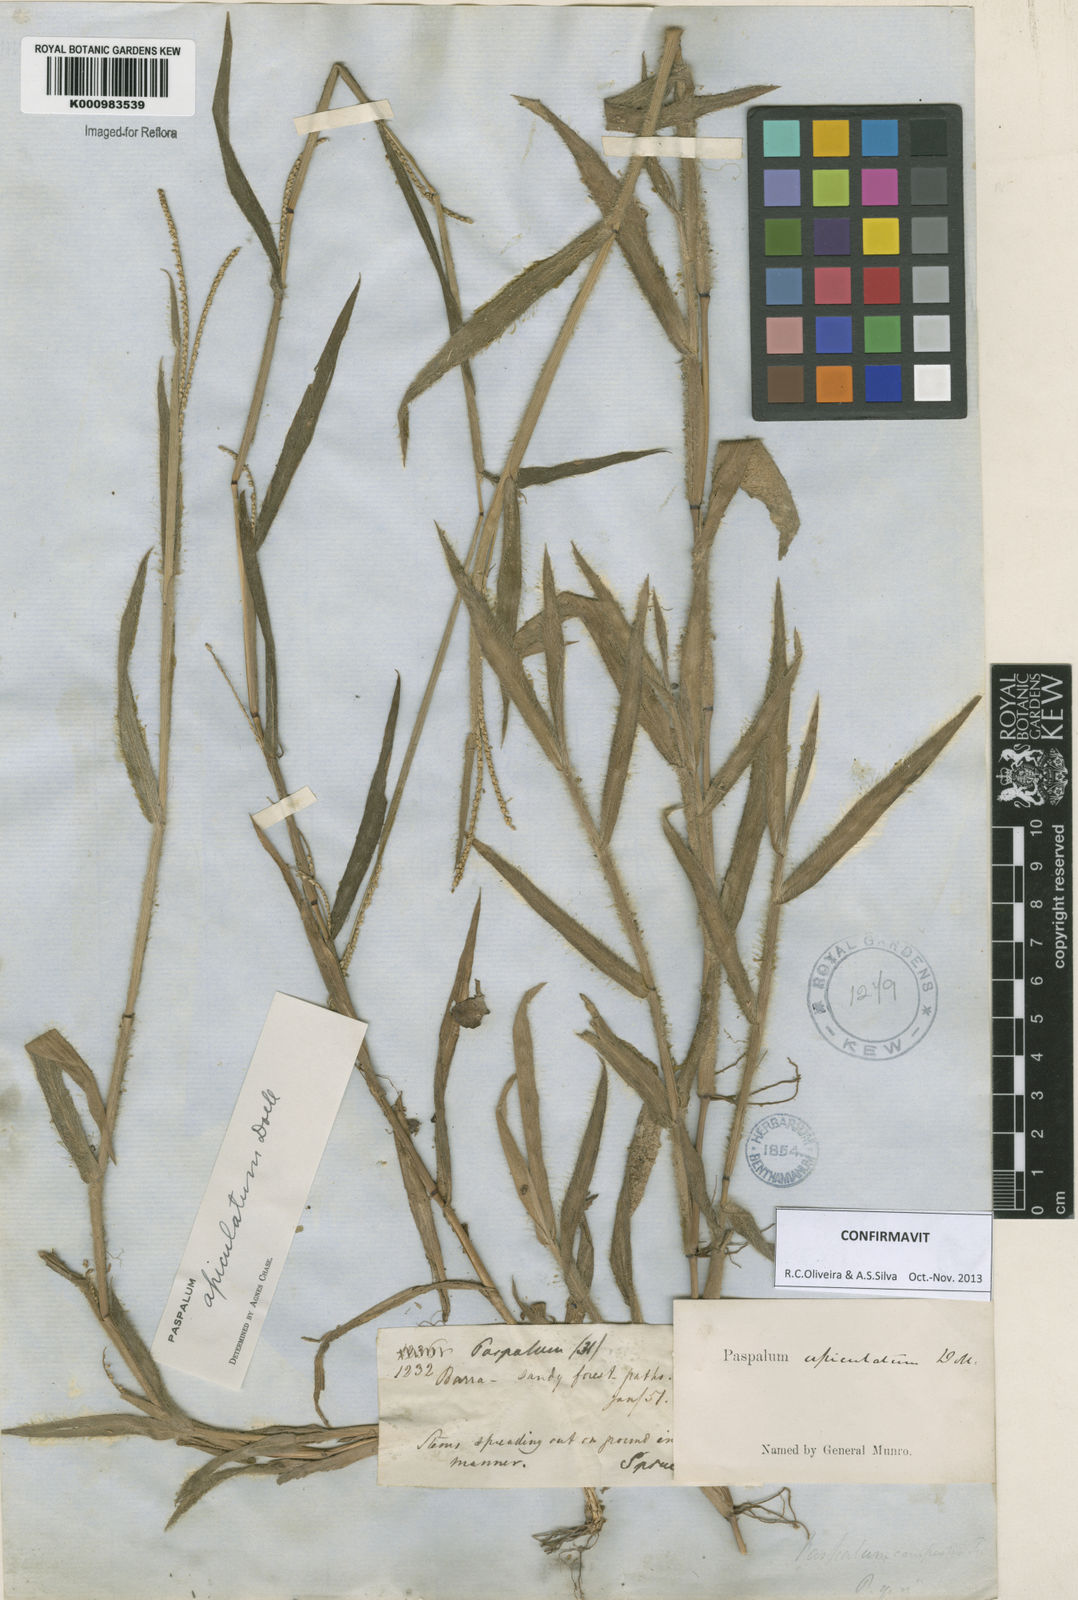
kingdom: Plantae
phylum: Tracheophyta
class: Liliopsida
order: Poales
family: Poaceae
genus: Paspalum
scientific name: Paspalum
